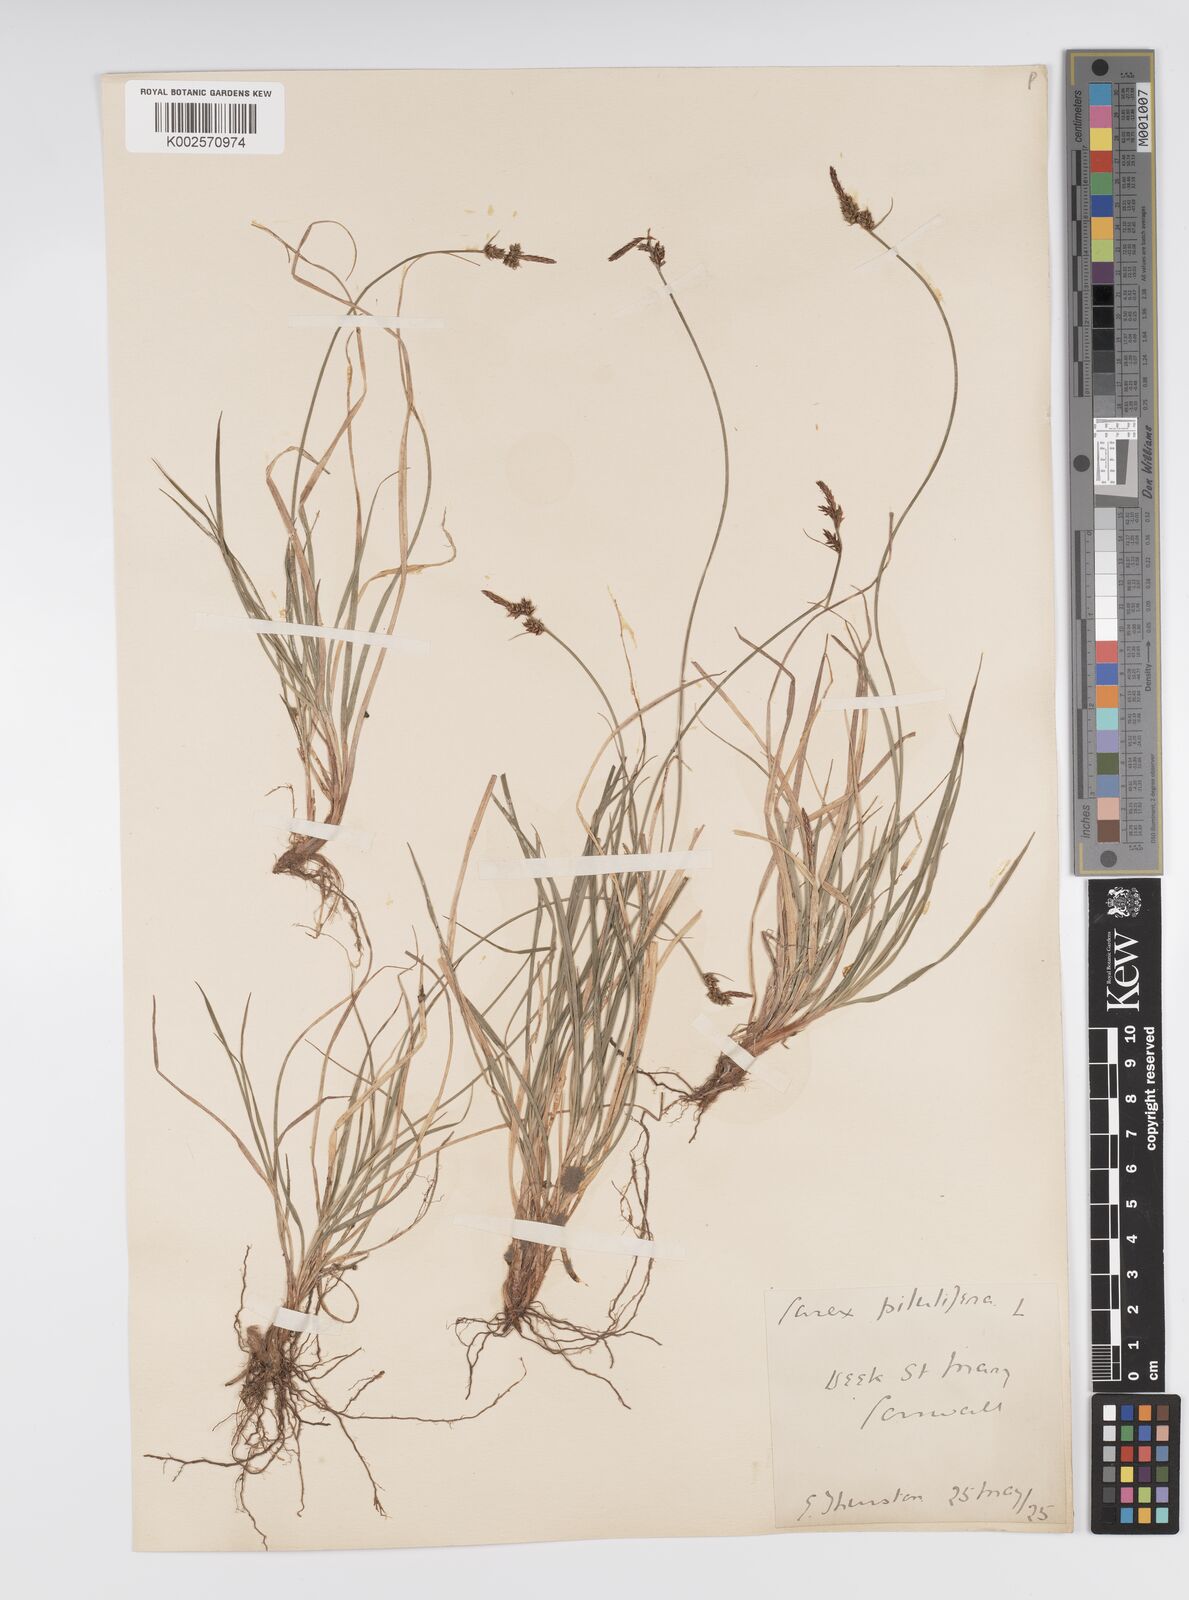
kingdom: Plantae
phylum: Tracheophyta
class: Liliopsida
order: Poales
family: Cyperaceae
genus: Carex
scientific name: Carex pilulifera
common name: Pill sedge
